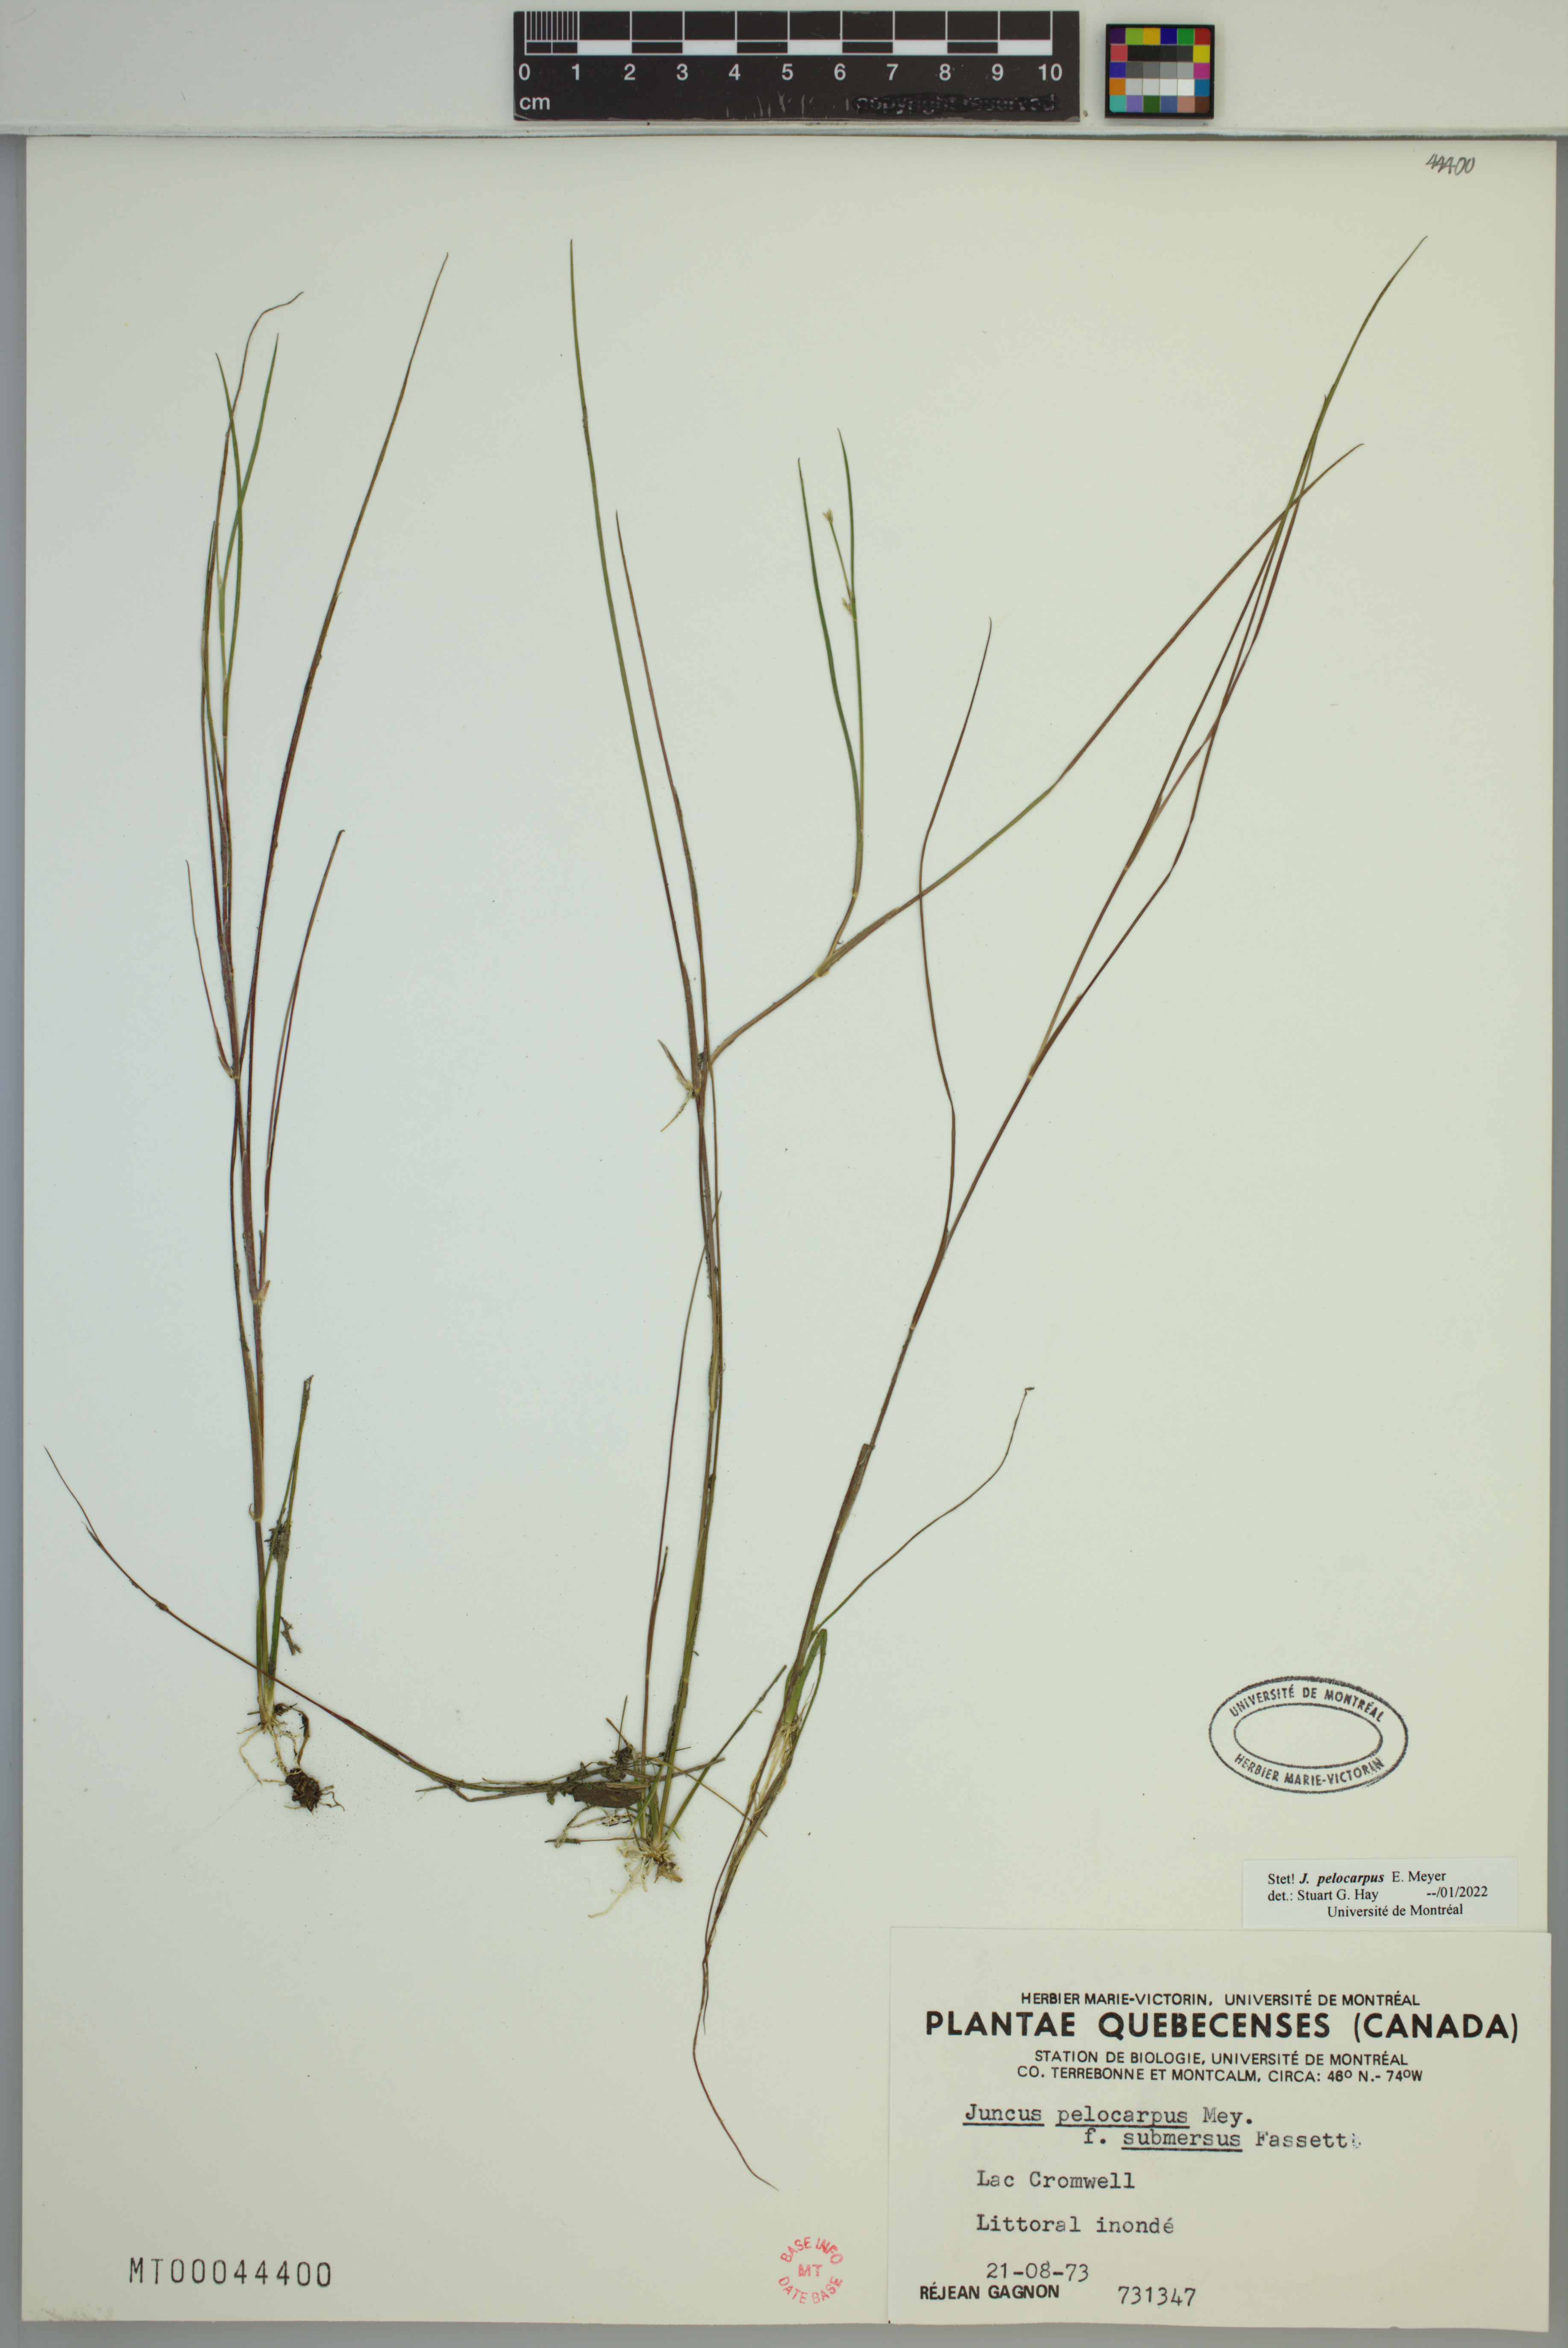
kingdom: Plantae
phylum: Tracheophyta
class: Liliopsida
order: Poales
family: Juncaceae
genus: Juncus
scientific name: Juncus pelocarpus
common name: Brown-fruited rush
